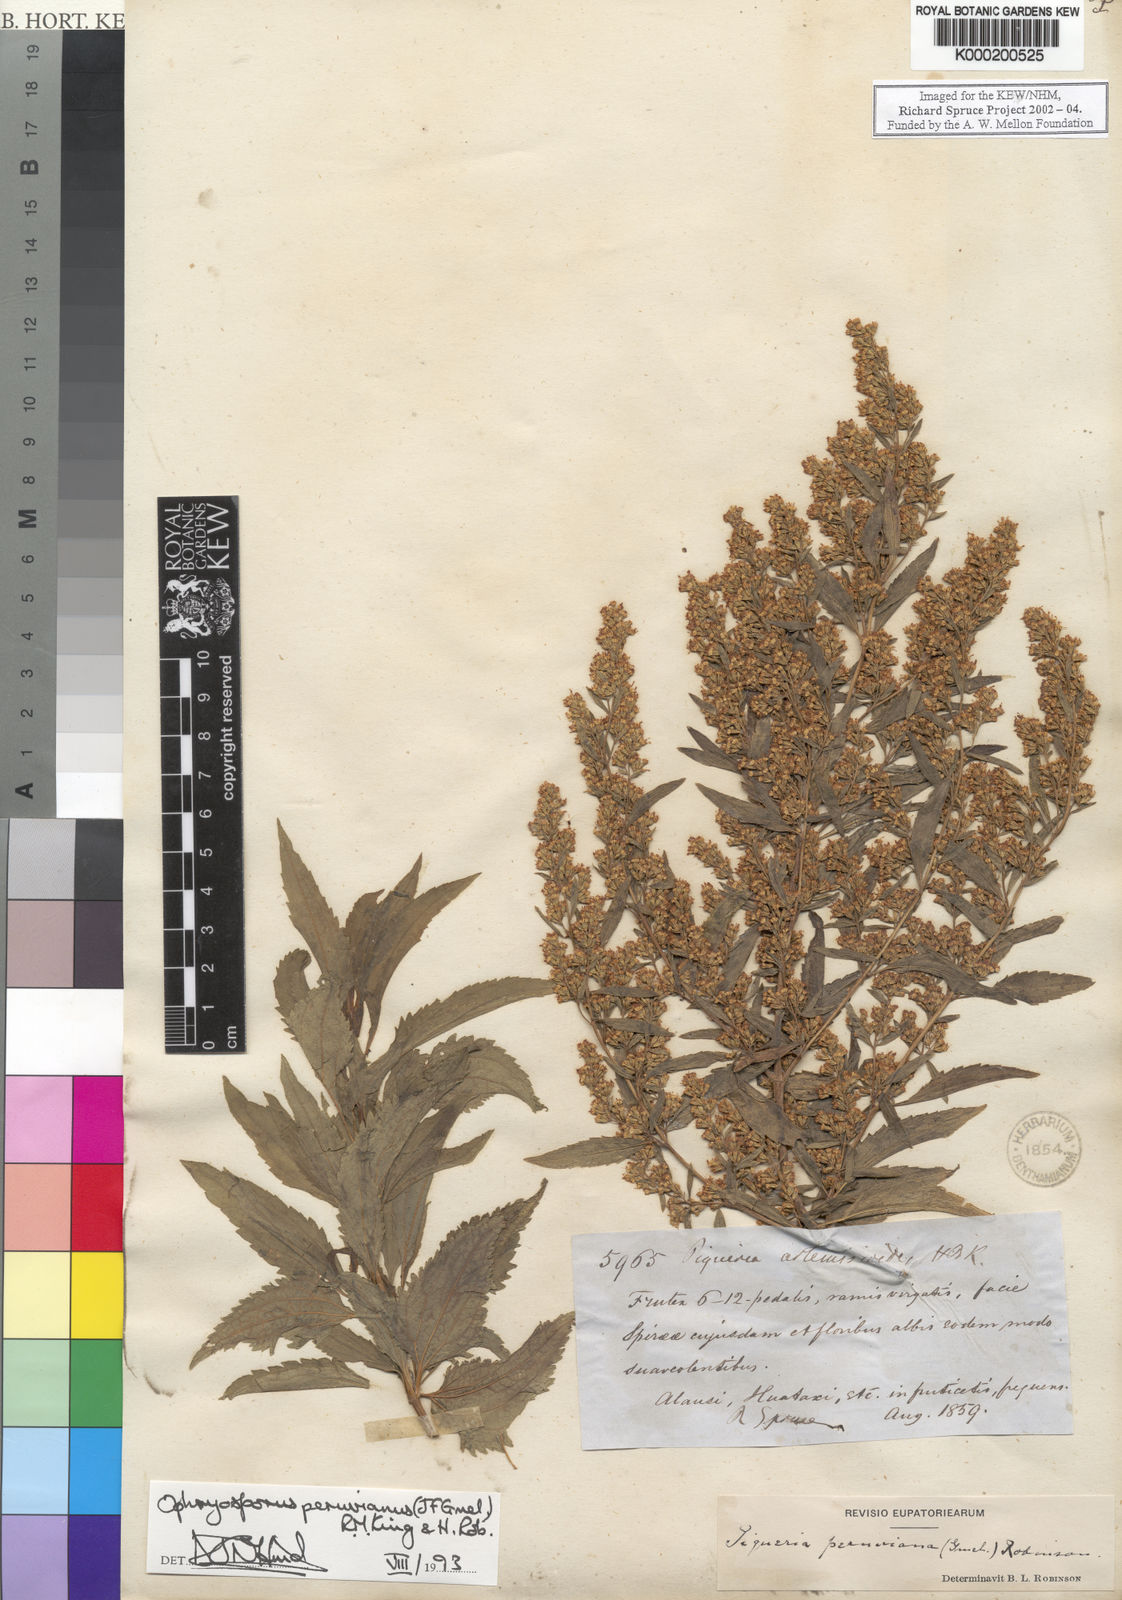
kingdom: Plantae
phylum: Tracheophyta
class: Magnoliopsida
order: Asterales
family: Asteraceae
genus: Ophryosporus
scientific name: Ophryosporus peruvianus
